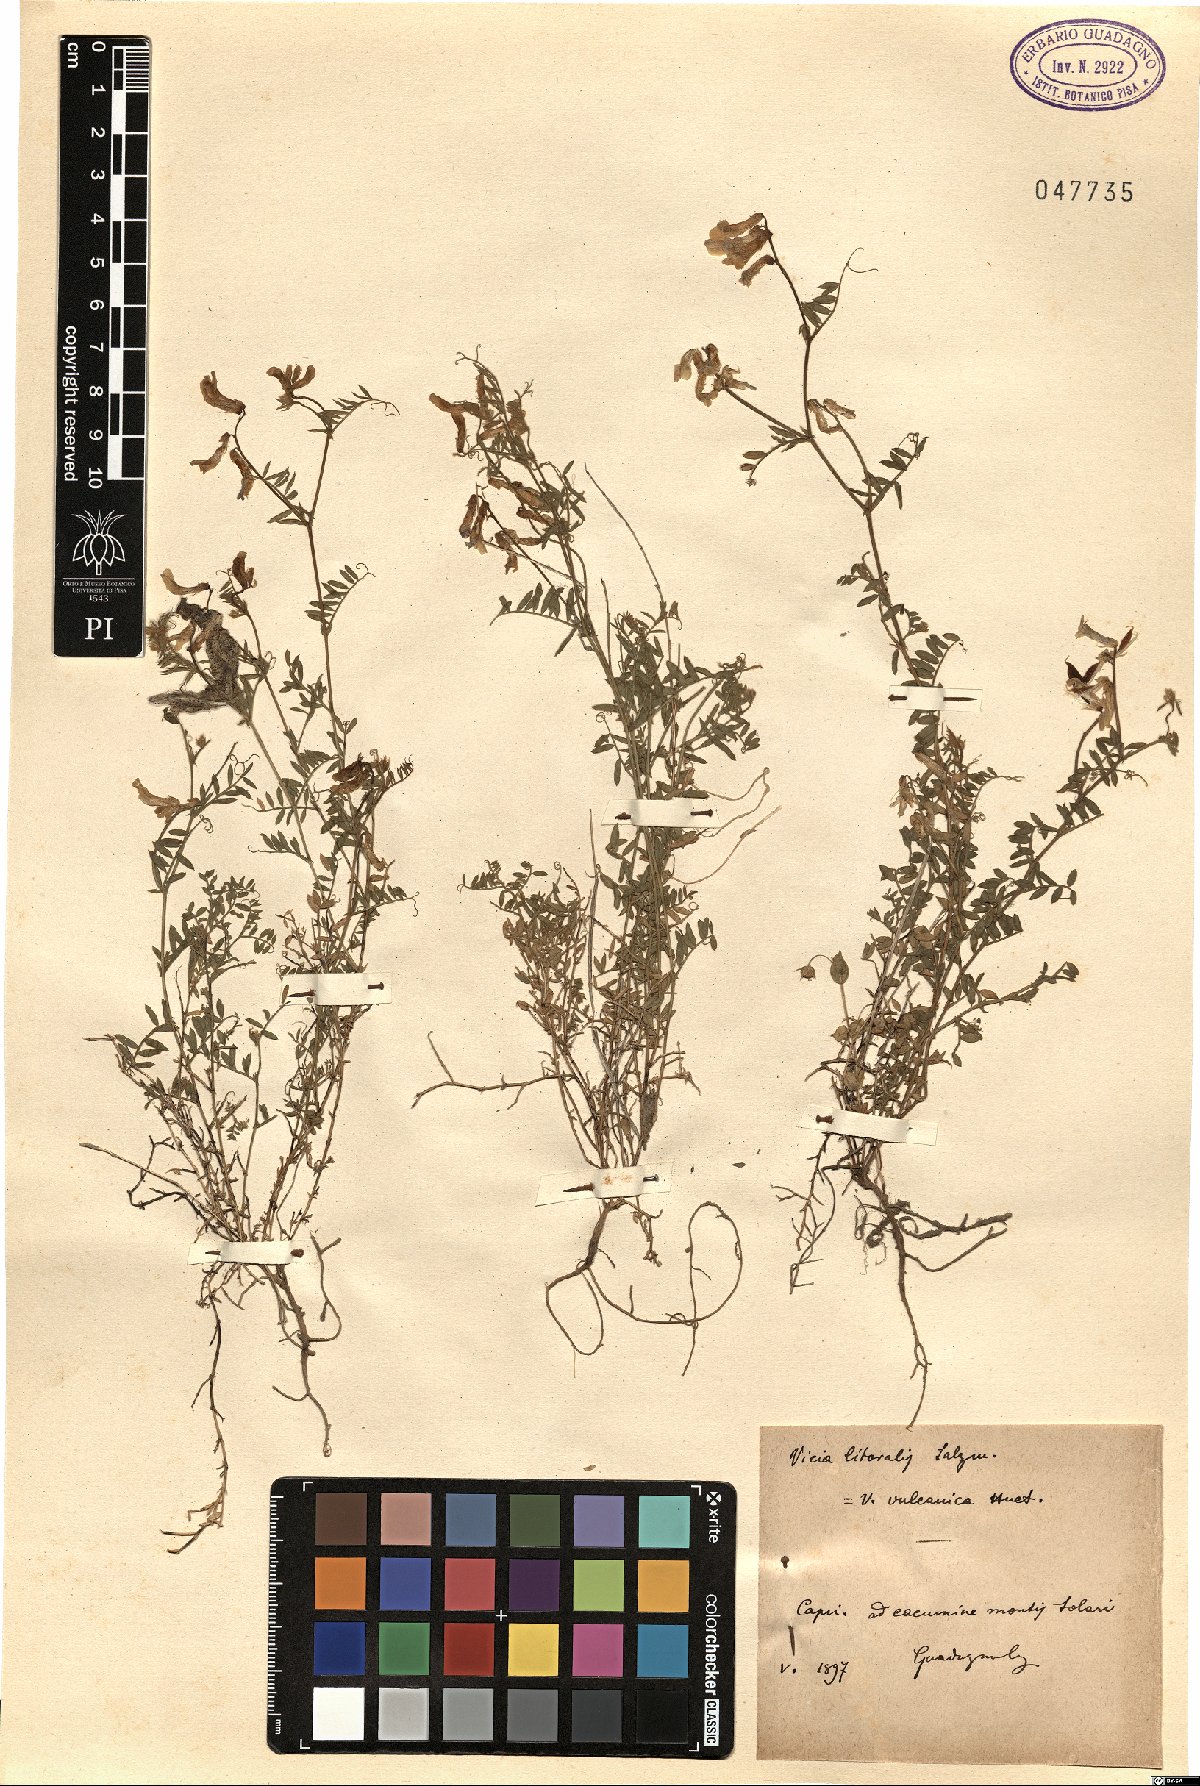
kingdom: Plantae
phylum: Tracheophyta
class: Magnoliopsida
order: Fabales
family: Fabaceae
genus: Vicia
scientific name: Vicia villosa
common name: Fodder vetch
